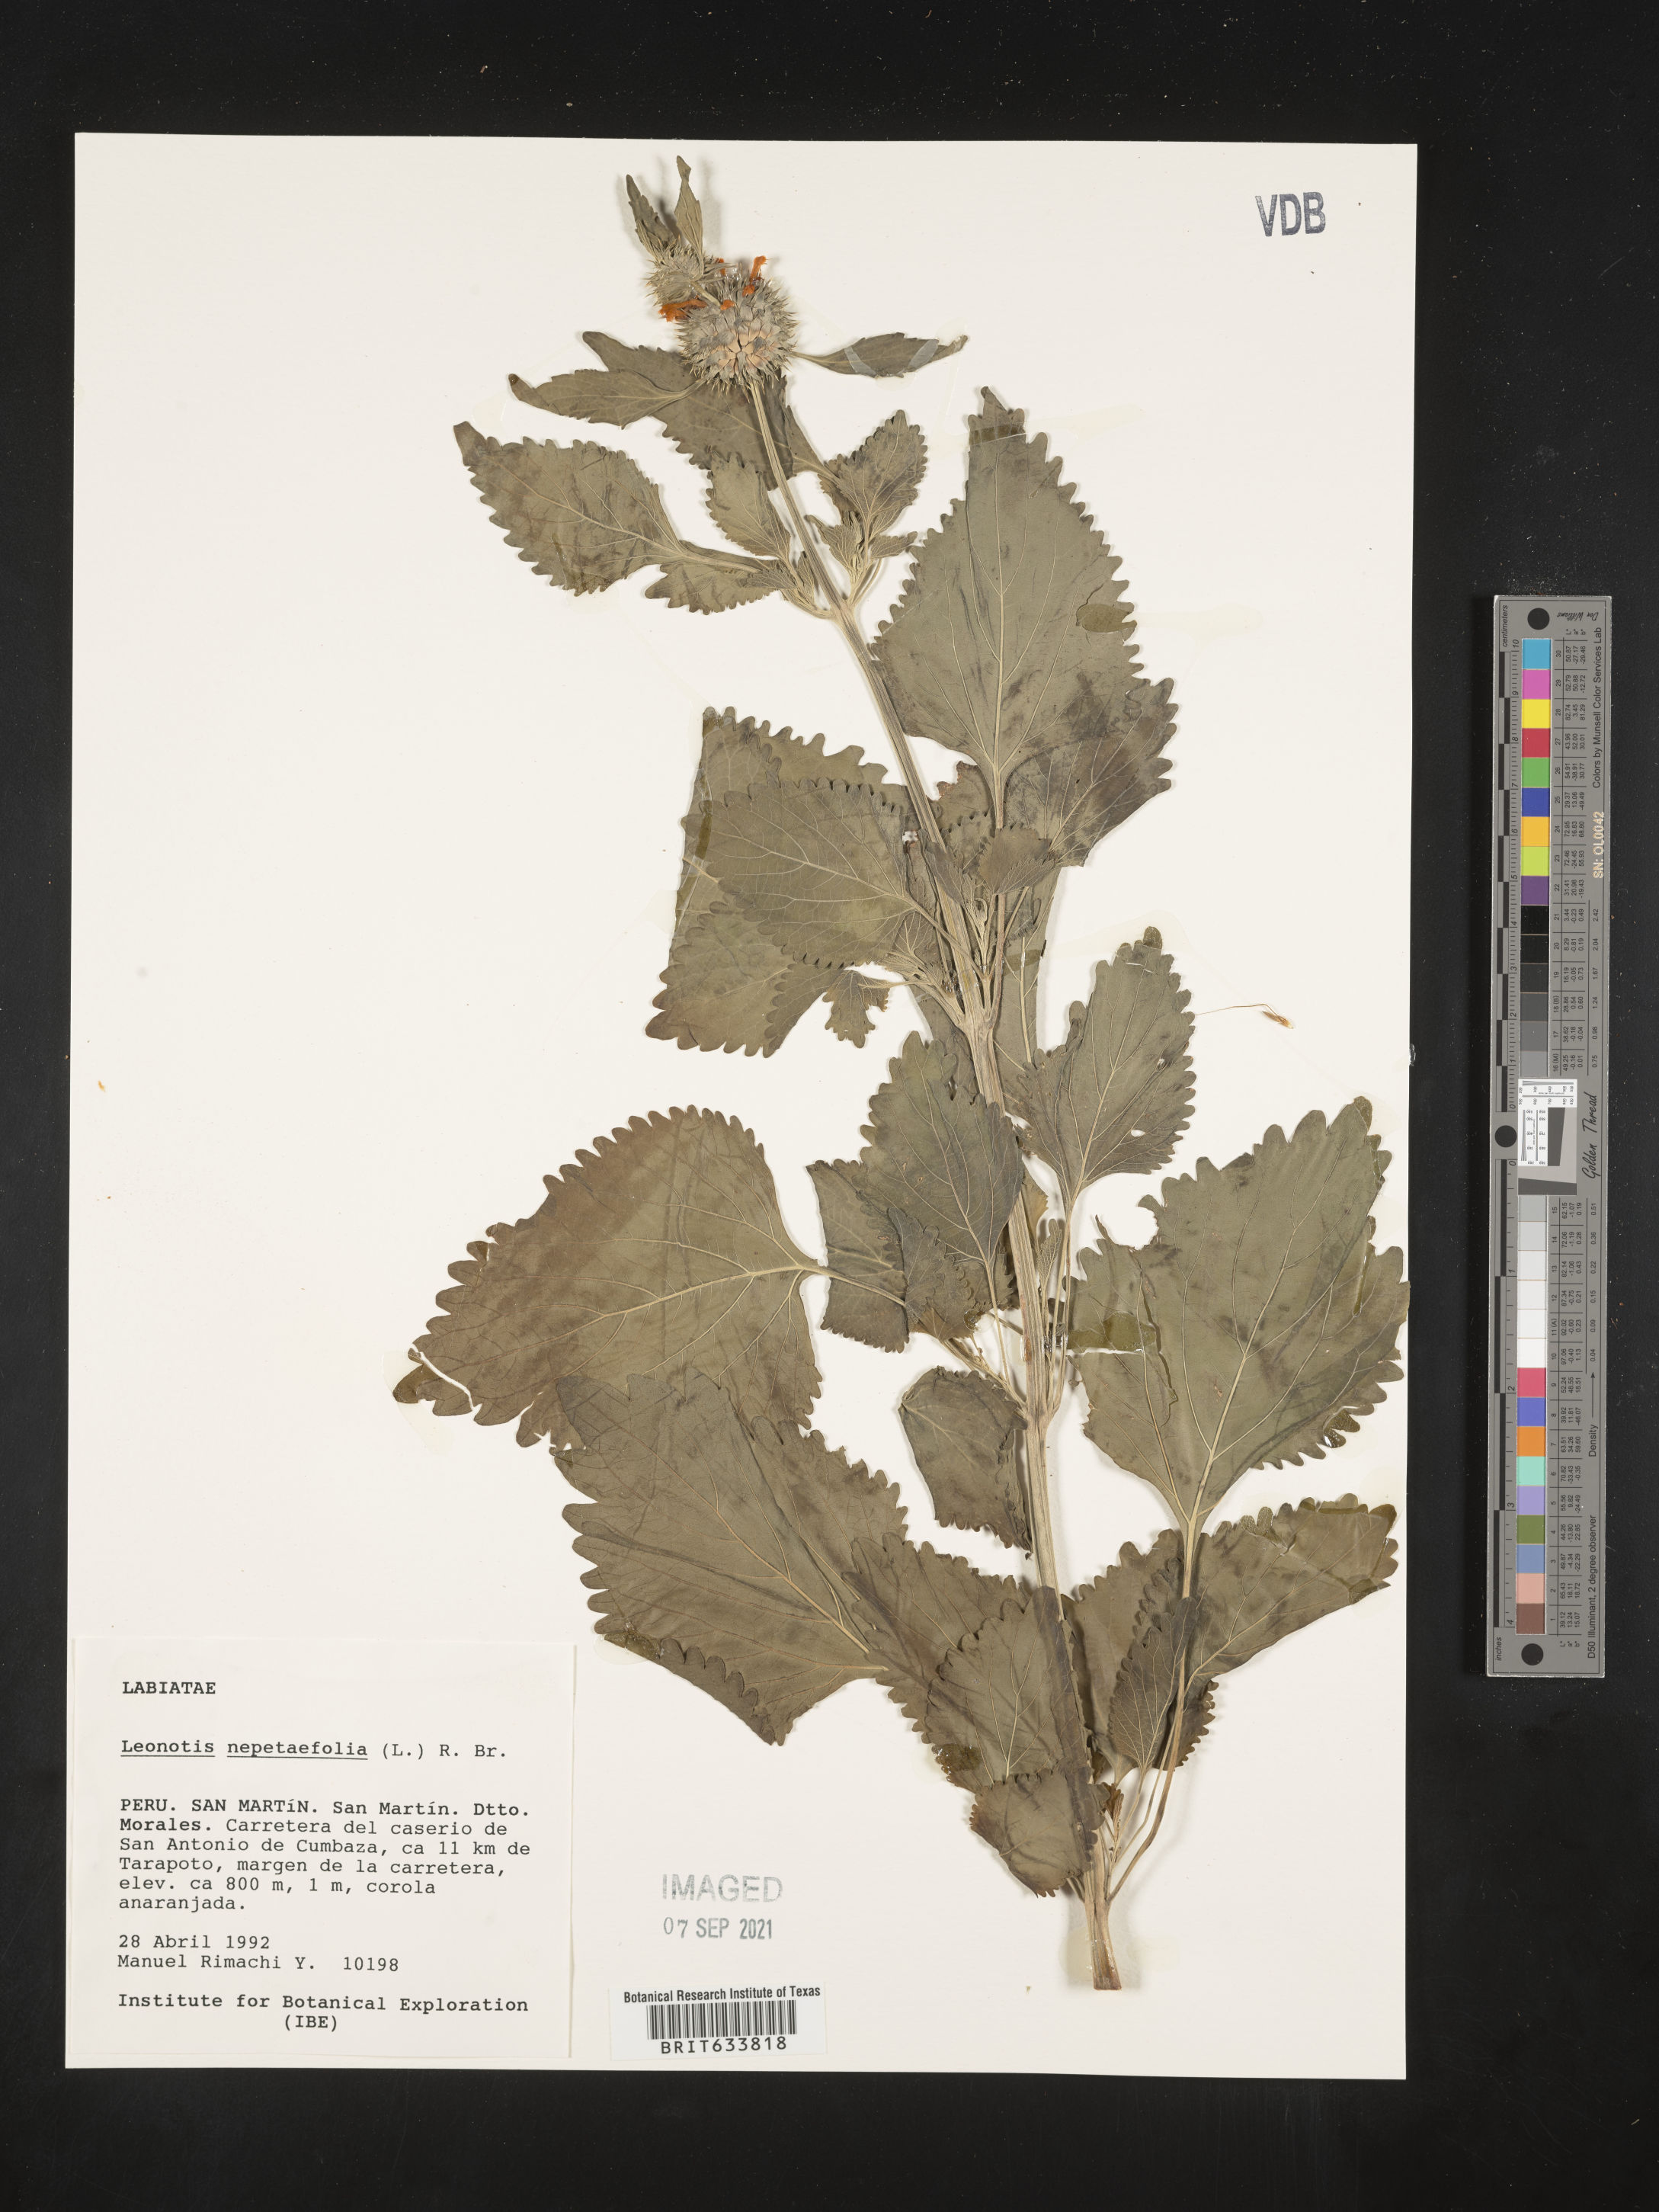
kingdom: Plantae
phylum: Tracheophyta
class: Magnoliopsida
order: Lamiales
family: Lamiaceae
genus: Leonotis
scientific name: Leonotis
